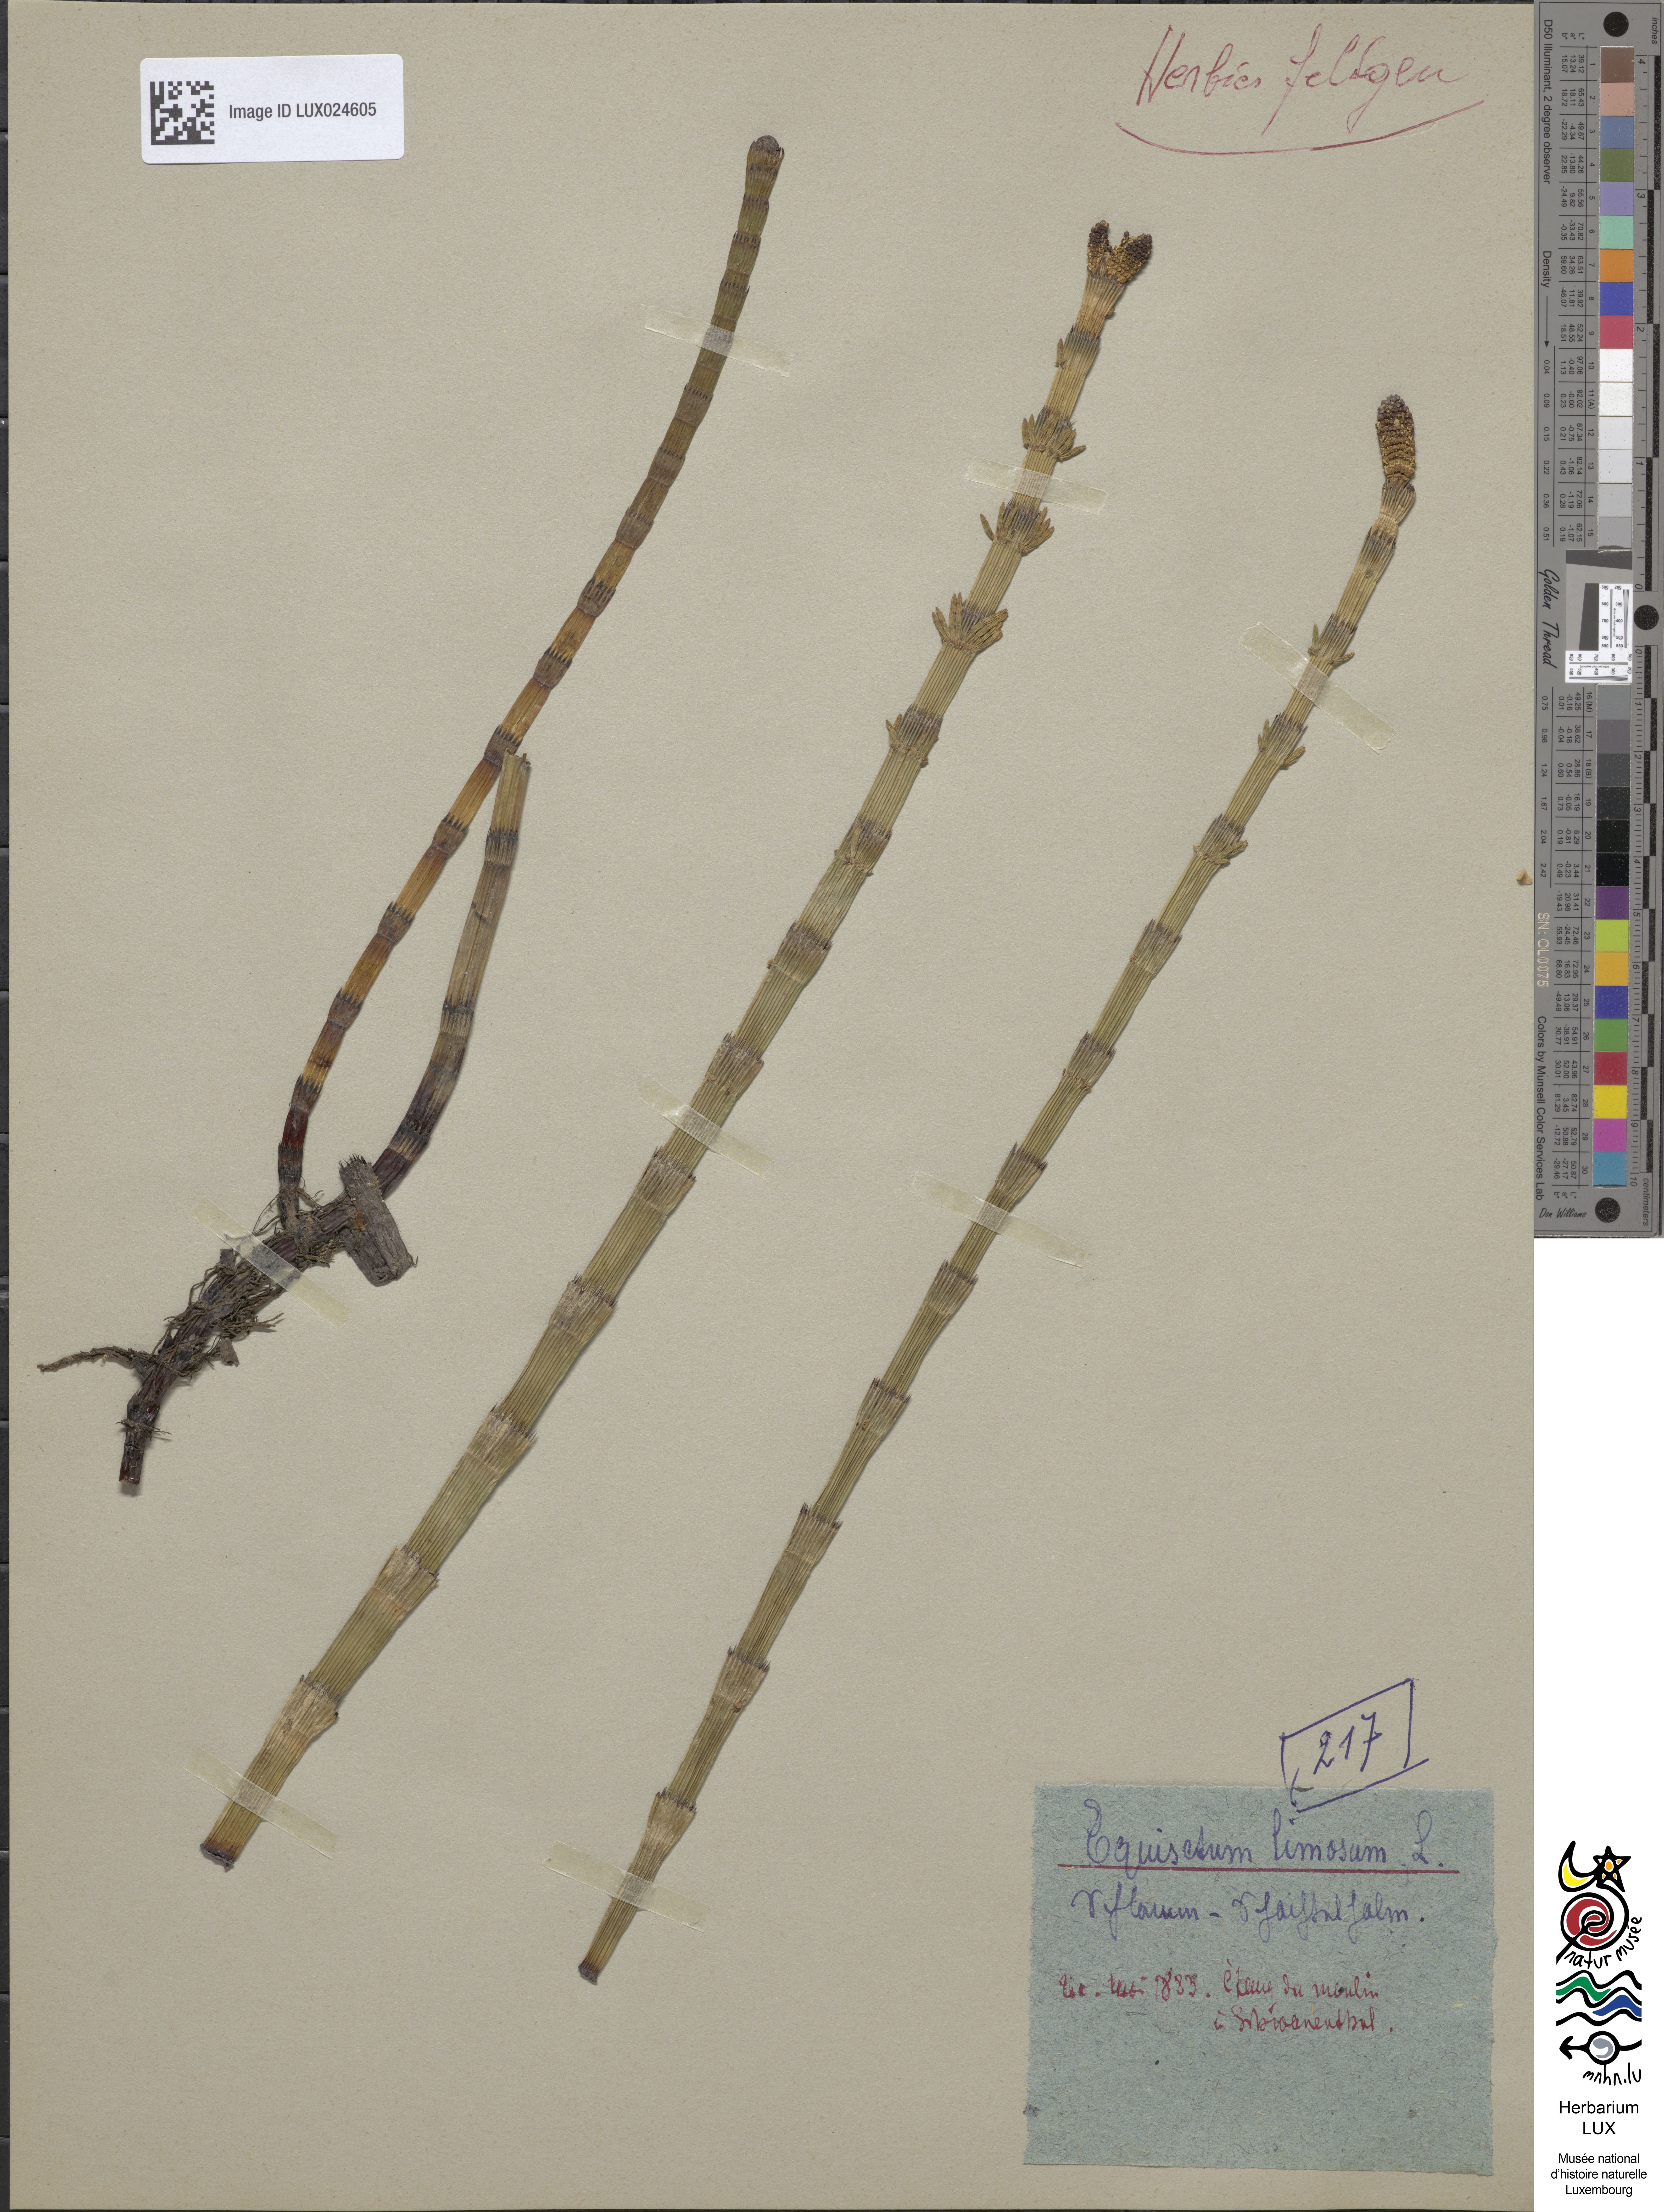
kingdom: Plantae
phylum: Tracheophyta
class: Polypodiopsida
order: Equisetales
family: Equisetaceae
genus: Equisetum
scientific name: Equisetum fluviatile
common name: Water horsetail
